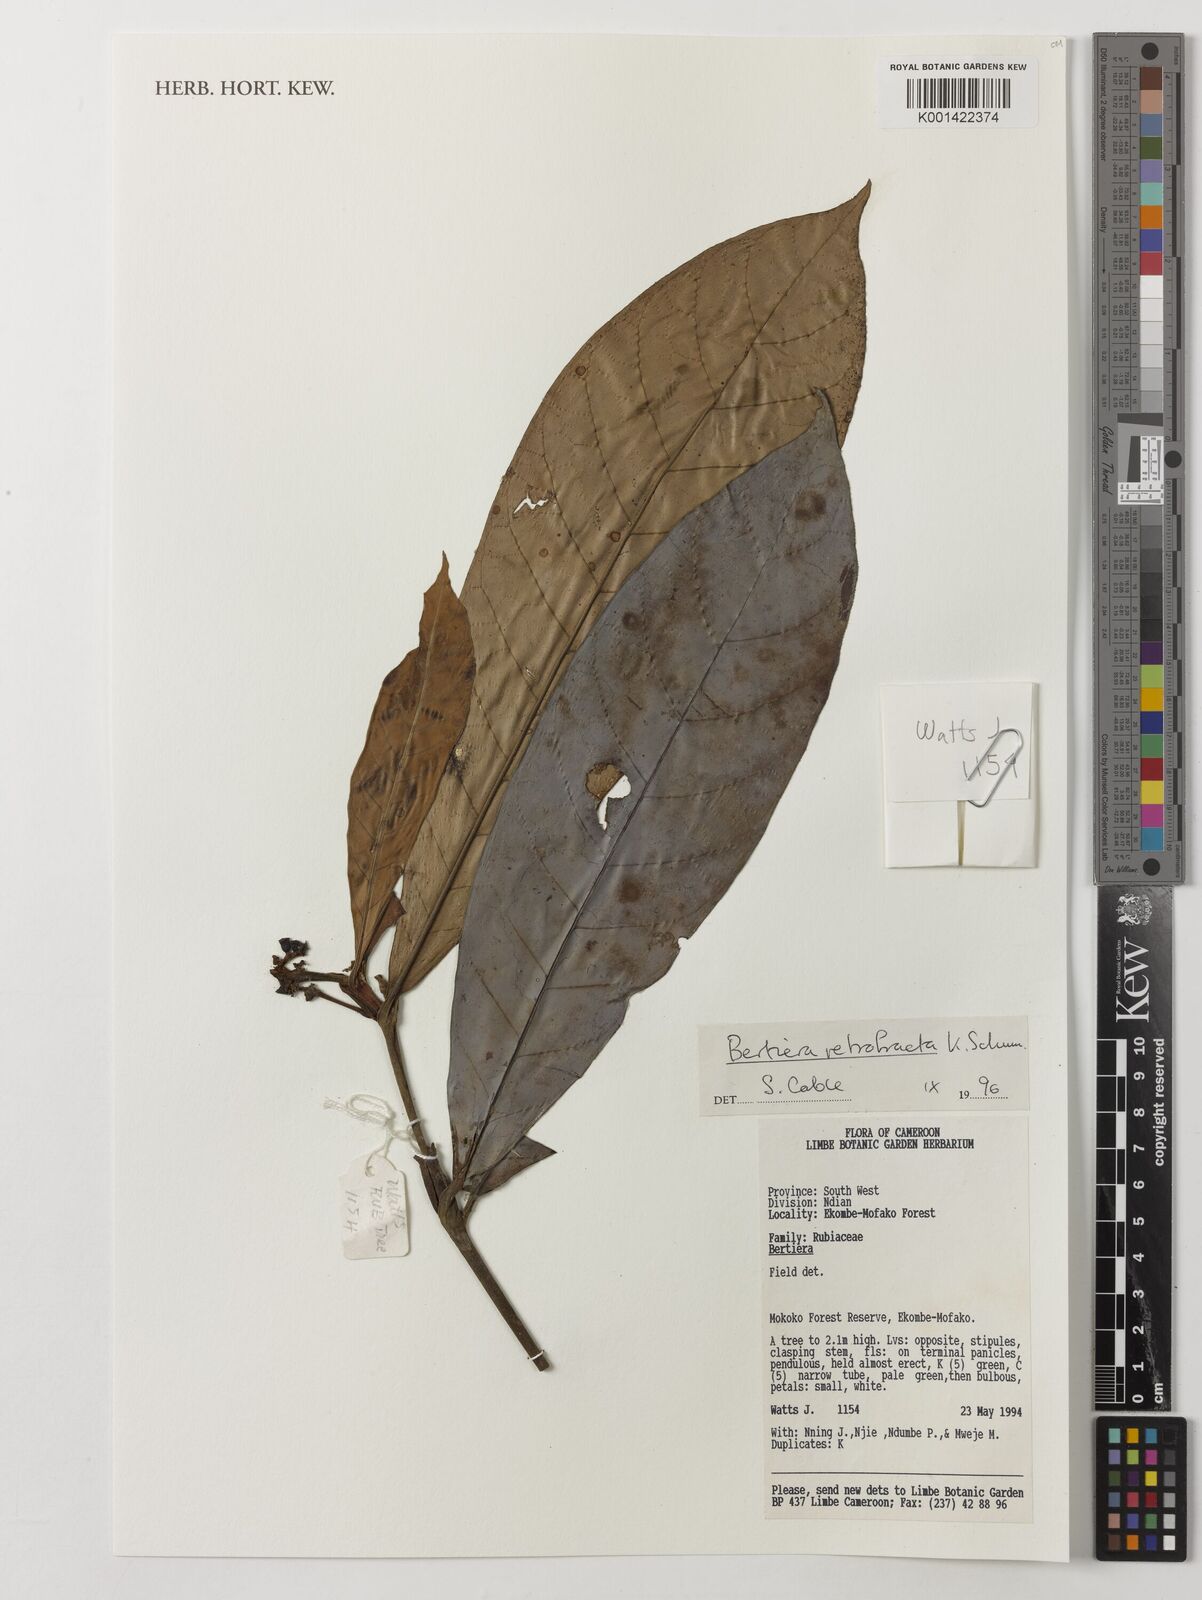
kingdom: Plantae
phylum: Tracheophyta
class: Magnoliopsida
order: Gentianales
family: Rubiaceae
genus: Bertiera
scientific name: Bertiera retrofracta
